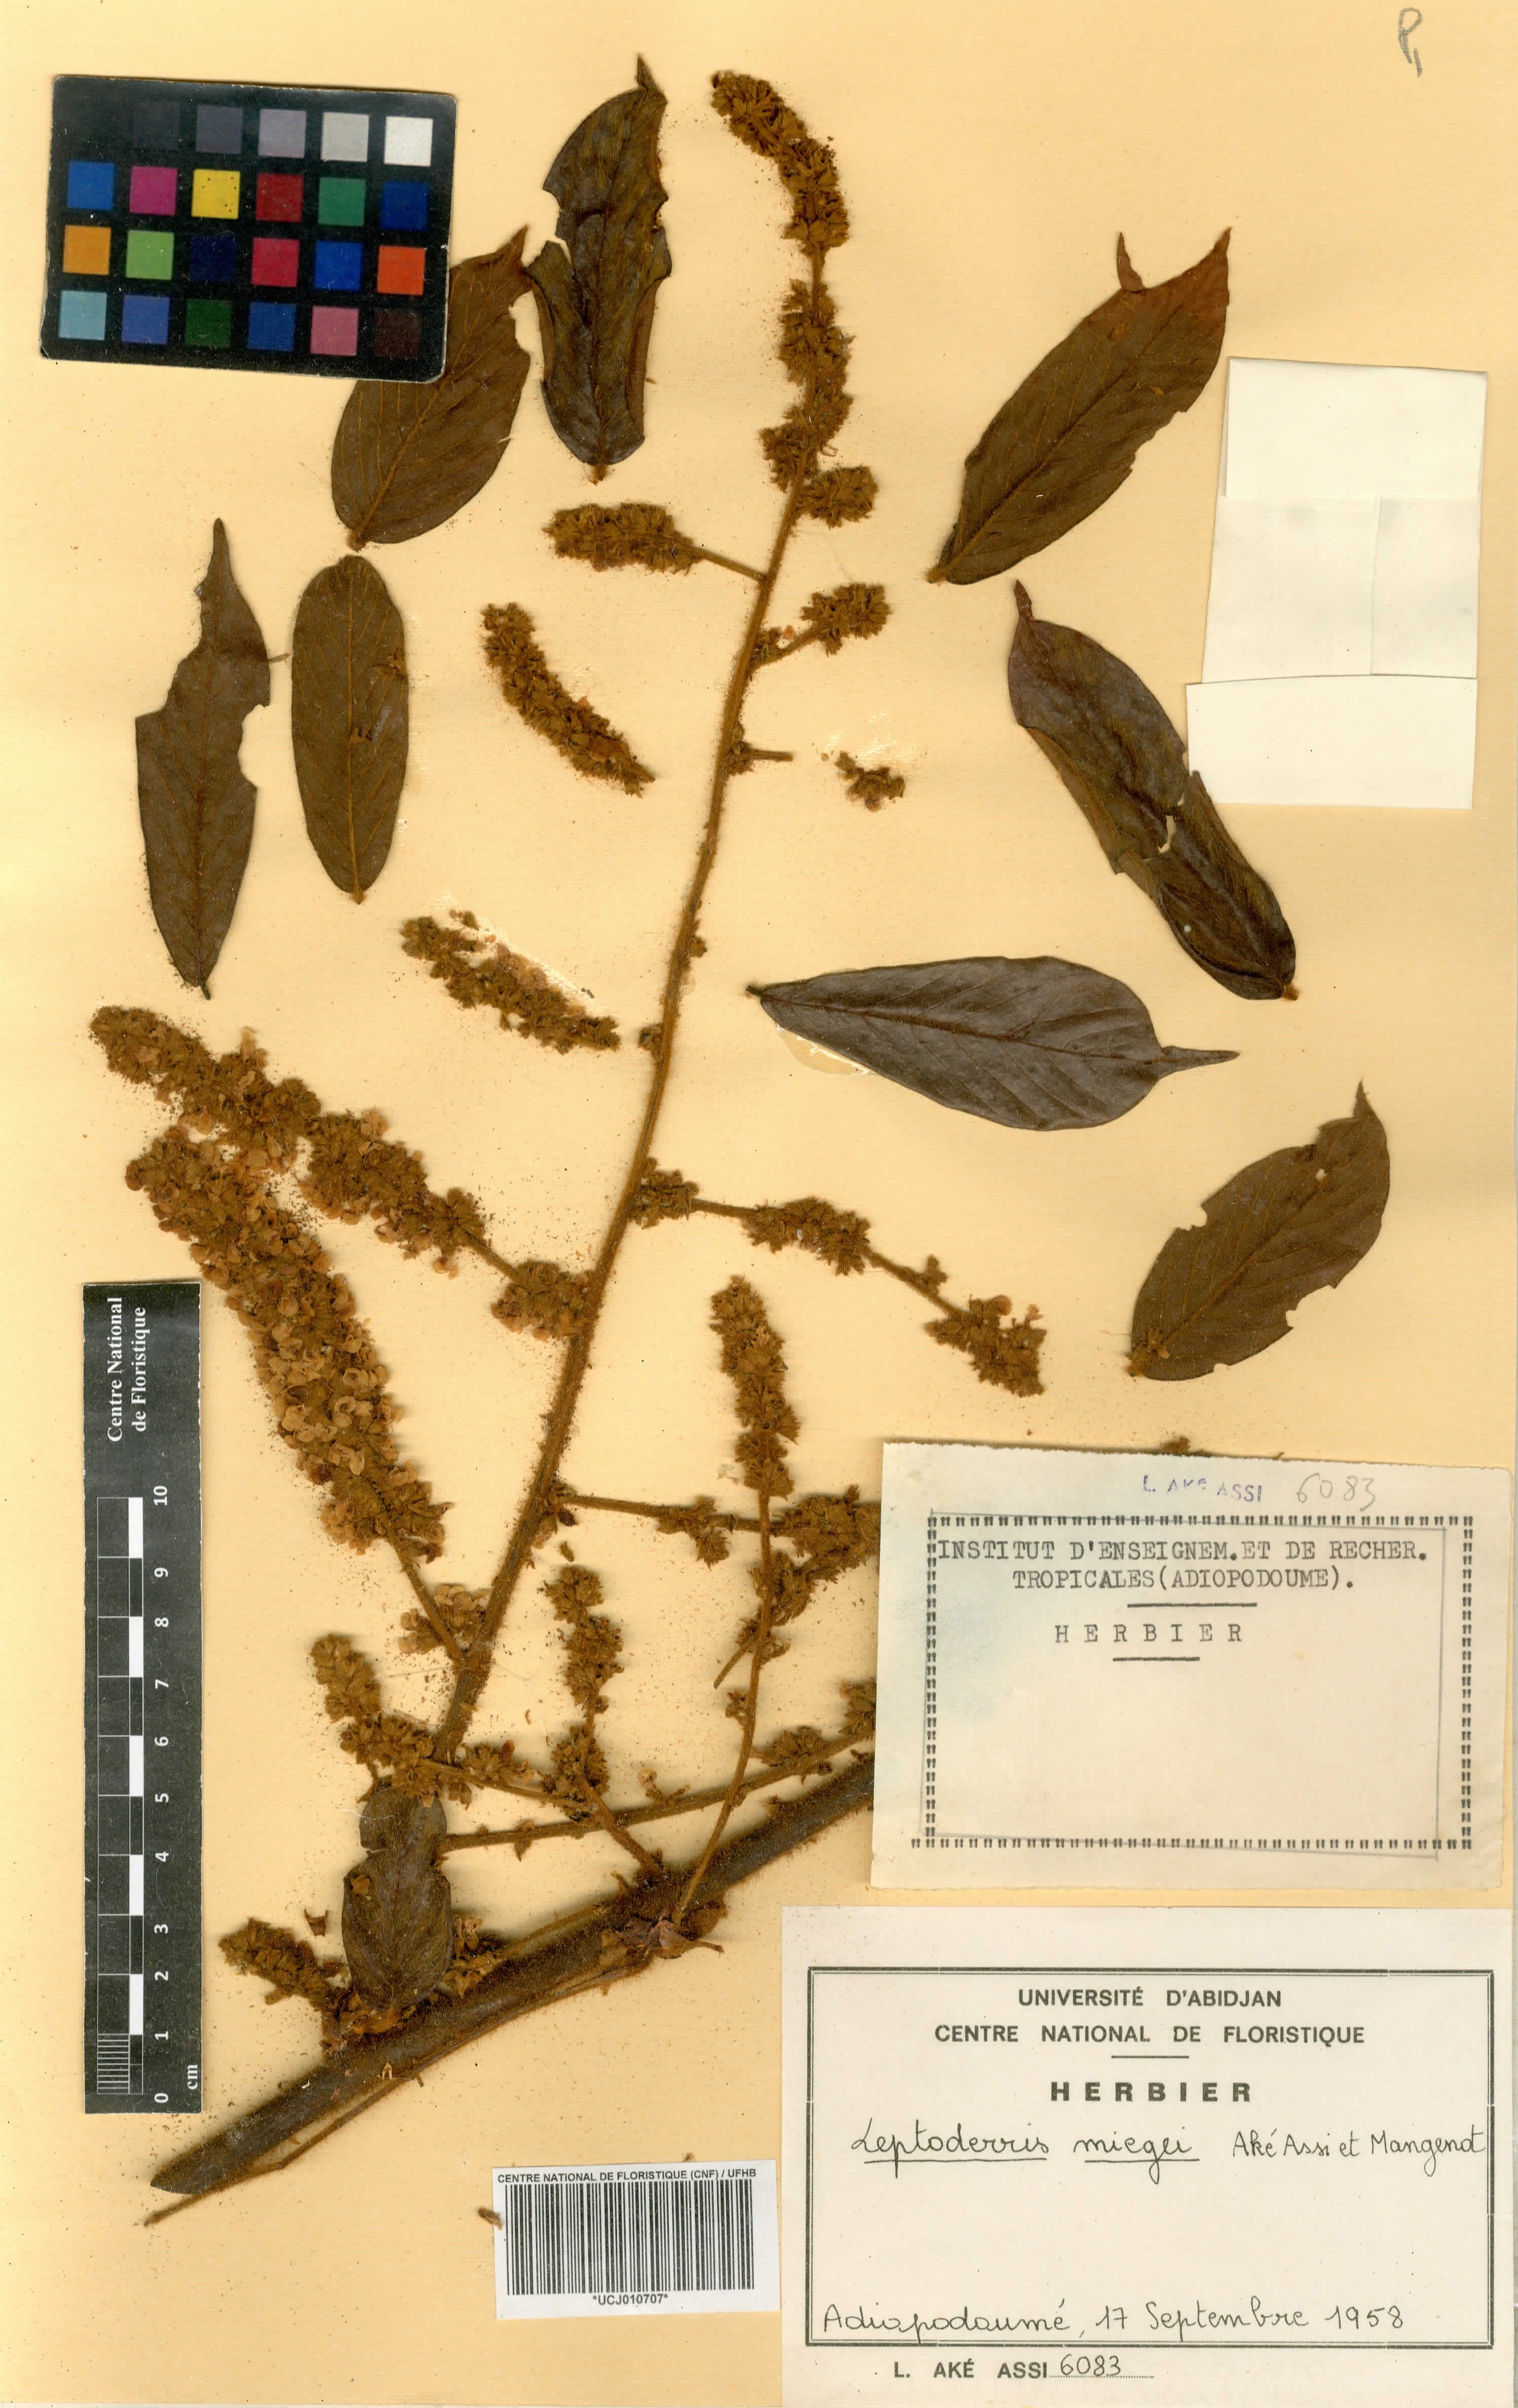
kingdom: Plantae
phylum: Tracheophyta
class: Magnoliopsida
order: Fabales
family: Fabaceae
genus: Leptoderris
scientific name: Leptoderris miegei
